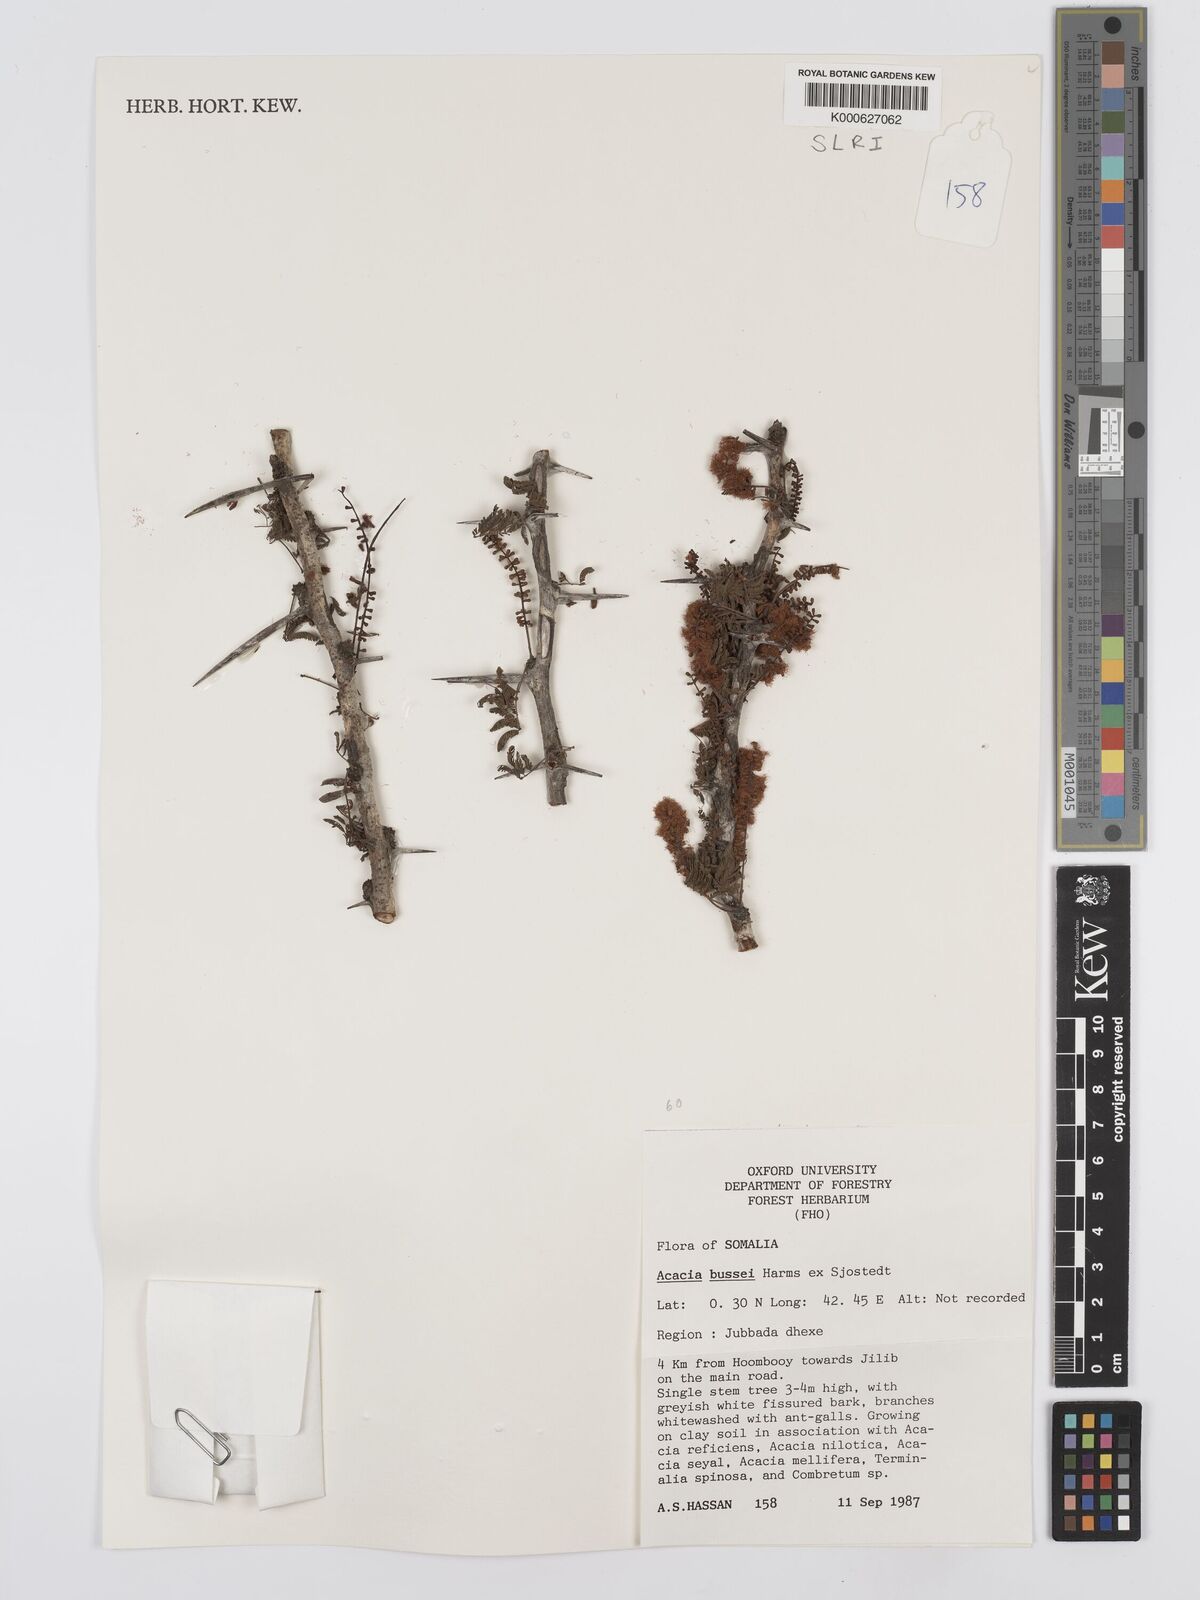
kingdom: Plantae
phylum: Tracheophyta
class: Magnoliopsida
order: Fabales
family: Fabaceae
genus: Vachellia
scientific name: Vachellia bussei
